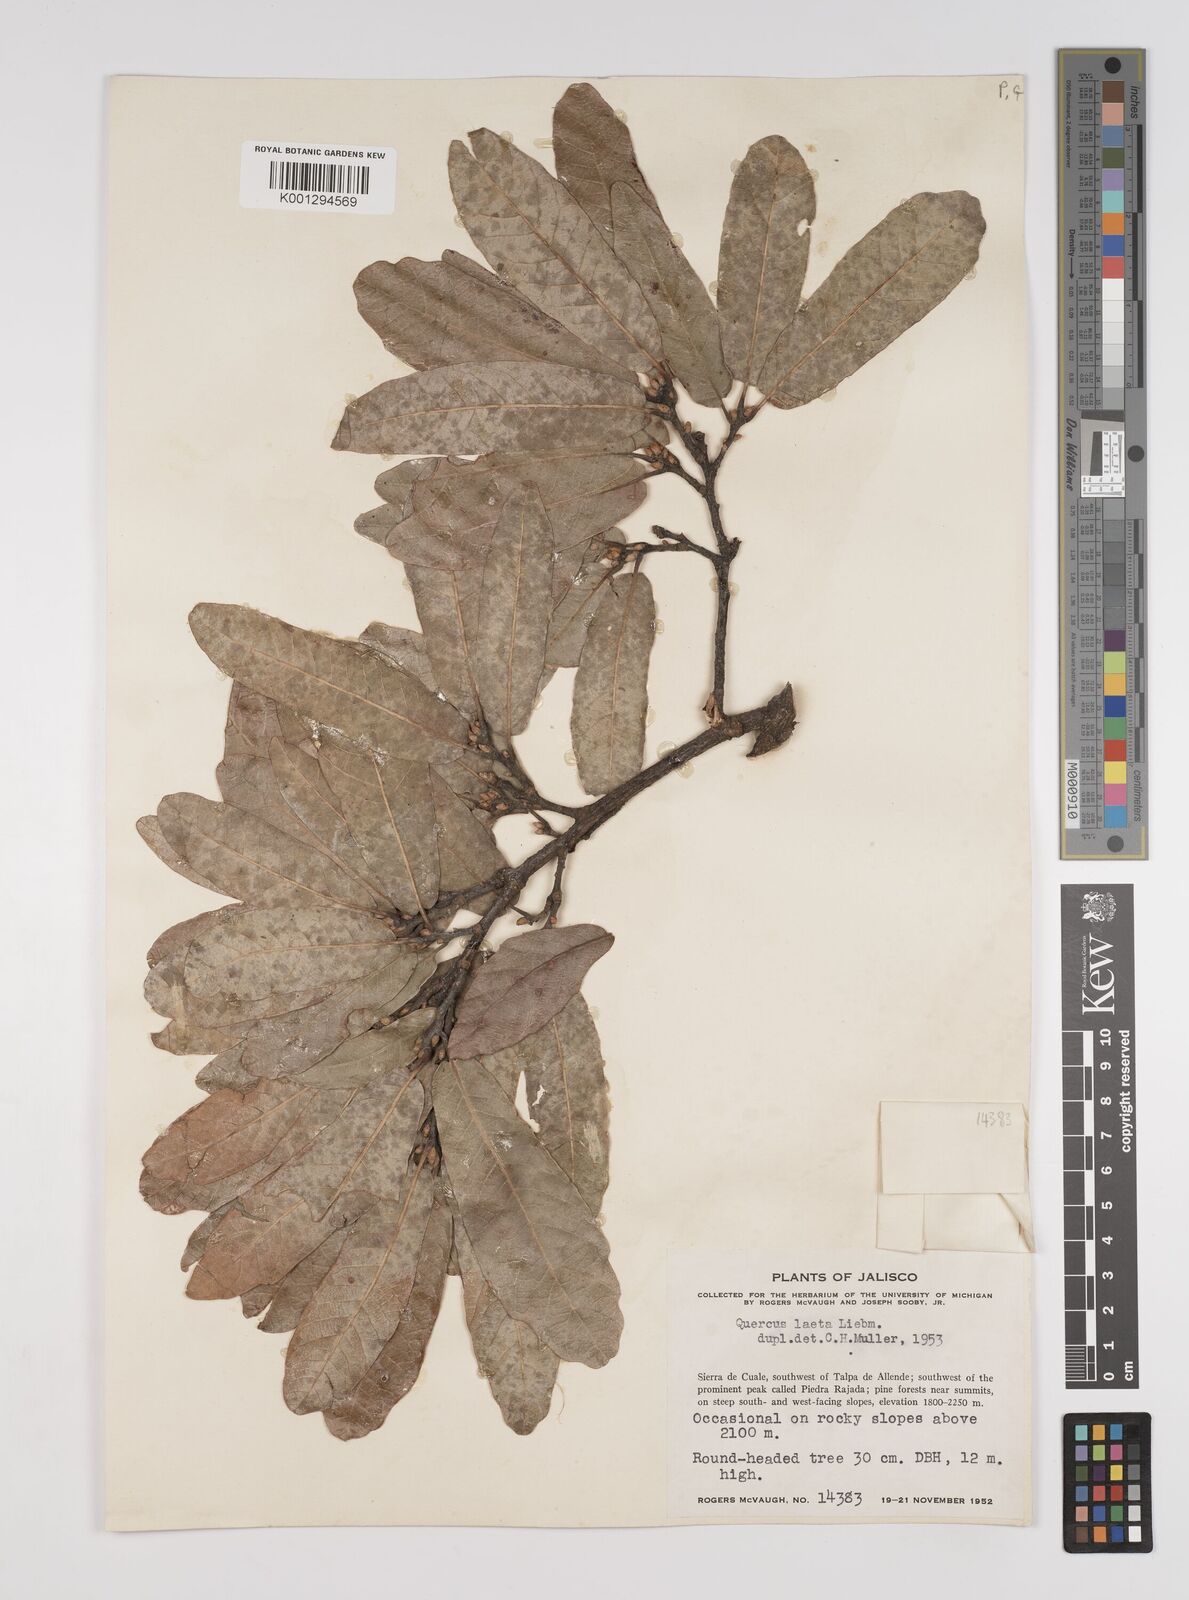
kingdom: Plantae
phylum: Tracheophyta
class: Magnoliopsida
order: Fagales
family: Fagaceae
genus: Quercus
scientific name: Quercus laeta
